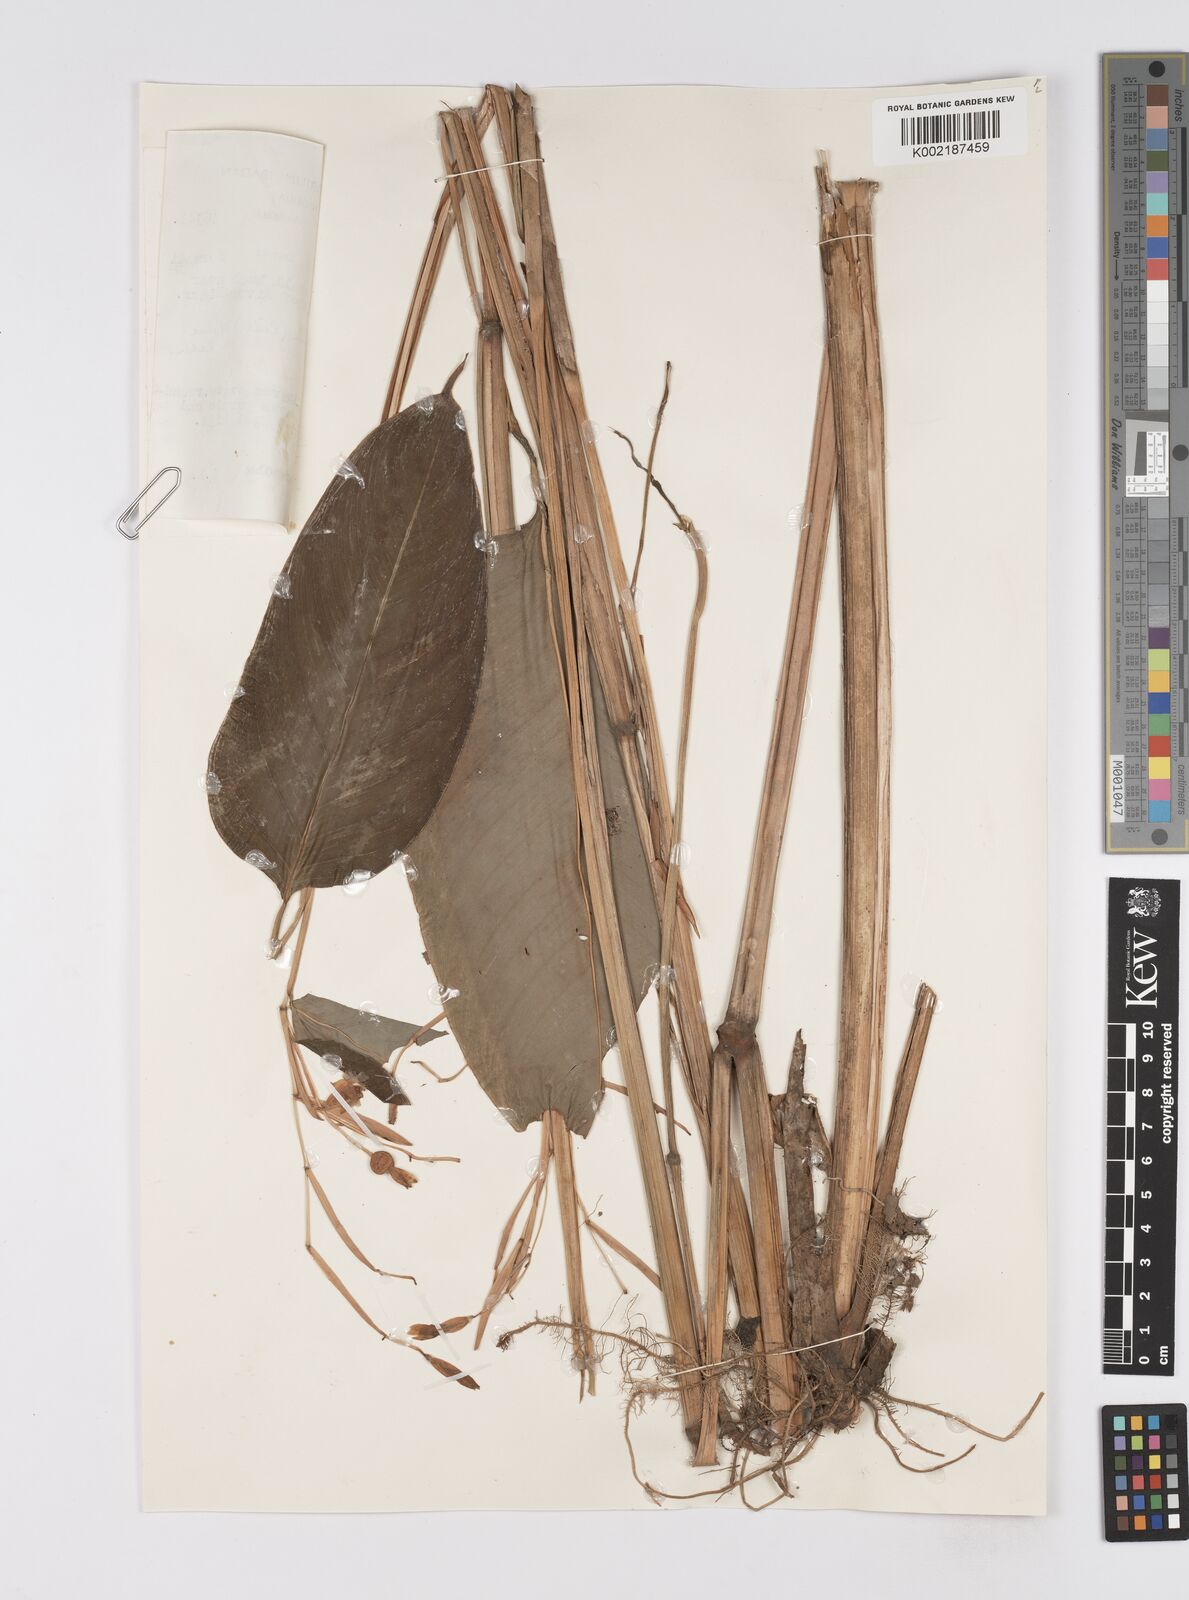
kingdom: Plantae
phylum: Tracheophyta
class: Liliopsida
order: Zingiberales
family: Marantaceae
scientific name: Marantaceae
